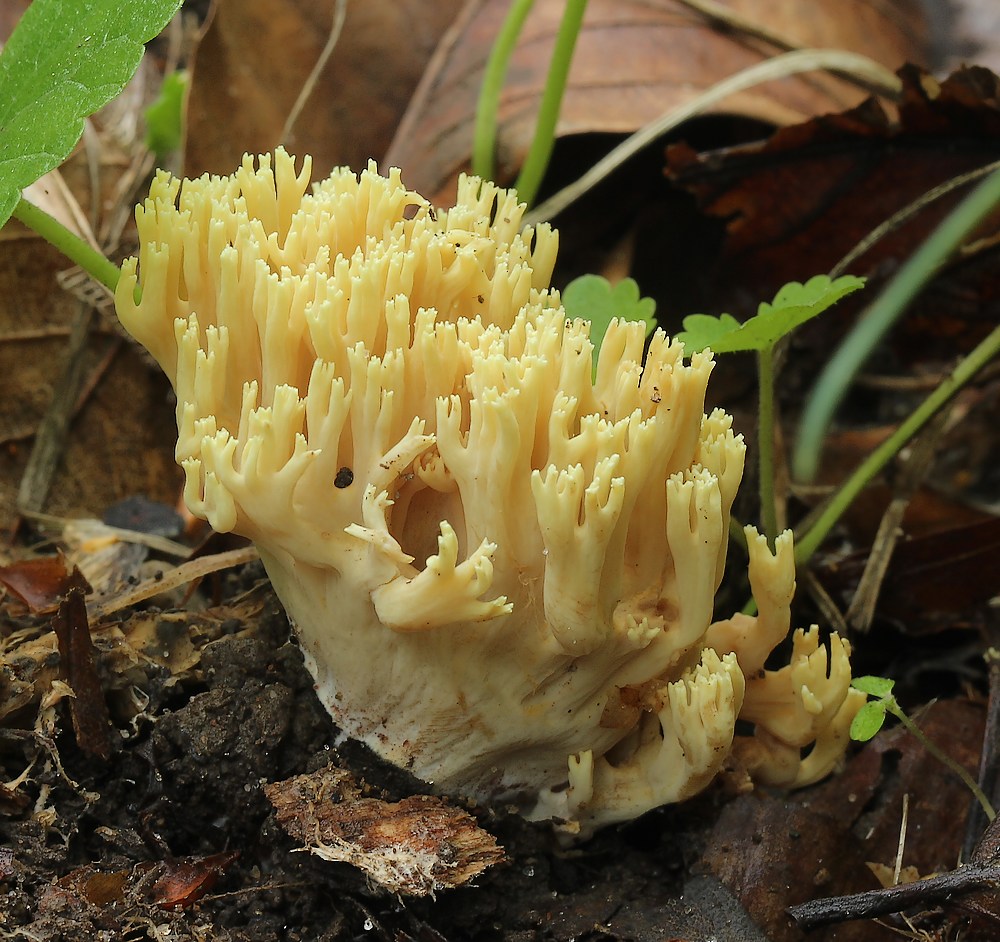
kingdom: Fungi
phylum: Basidiomycota
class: Agaricomycetes
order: Gomphales
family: Gomphaceae
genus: Ramaria
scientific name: Ramaria
